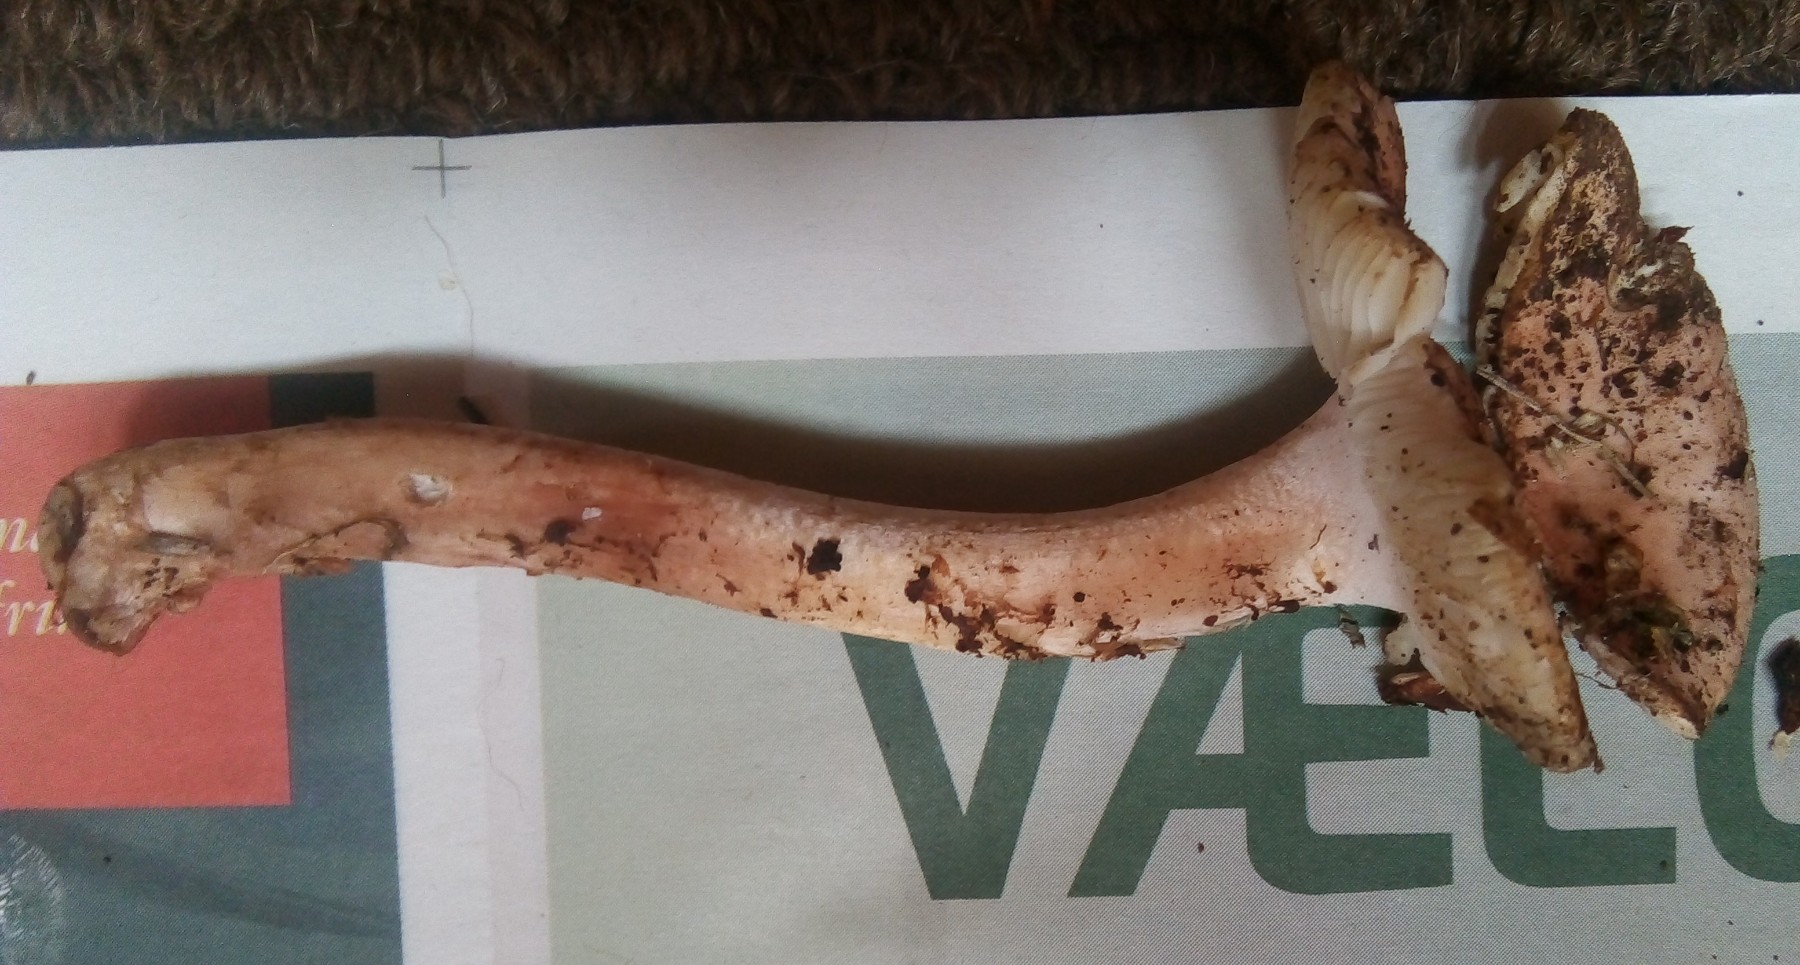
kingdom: Fungi
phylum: Basidiomycota
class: Agaricomycetes
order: Agaricales
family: Amanitaceae
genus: Amanita
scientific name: Amanita rubescens
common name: rødmende fluesvamp
